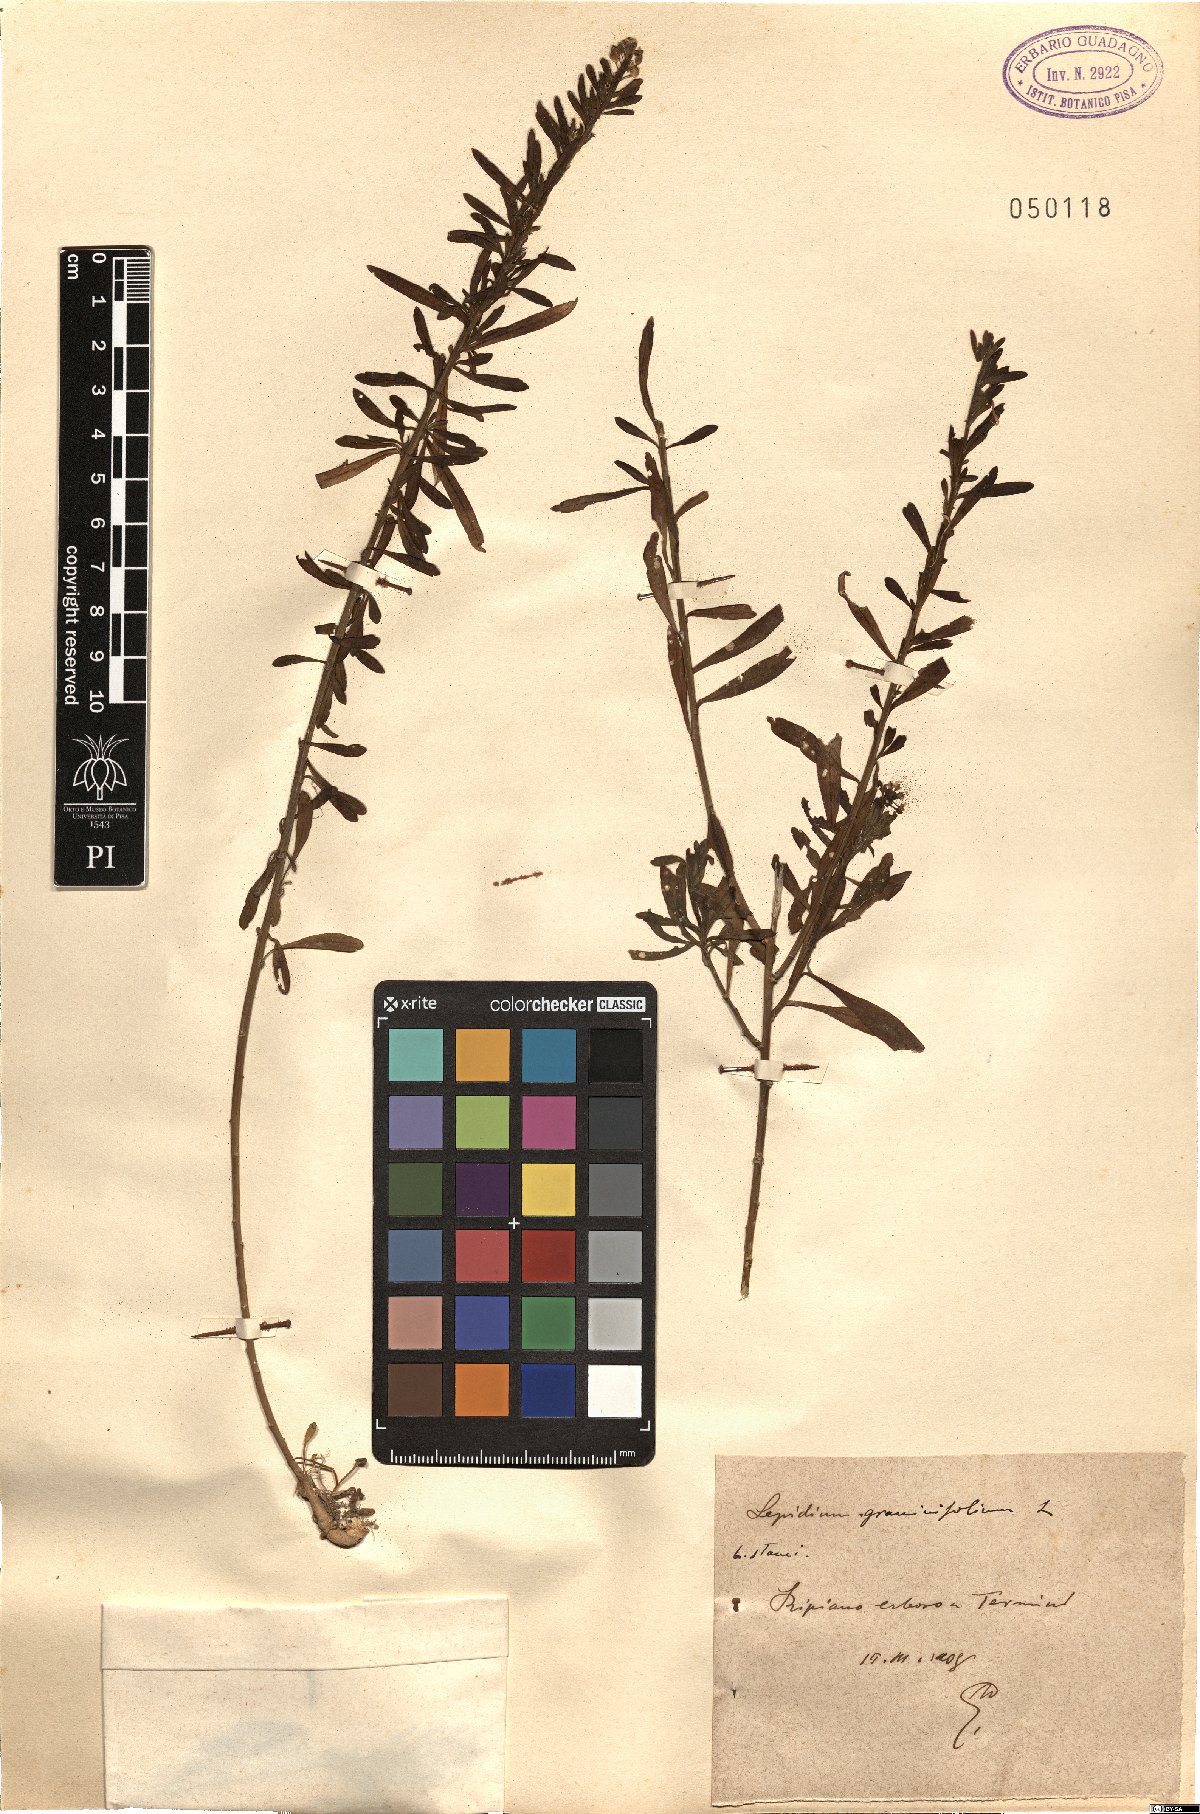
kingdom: Plantae
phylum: Tracheophyta
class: Magnoliopsida
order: Brassicales
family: Brassicaceae
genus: Lepidium
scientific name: Lepidium graminifolium
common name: Tall pepperwort
